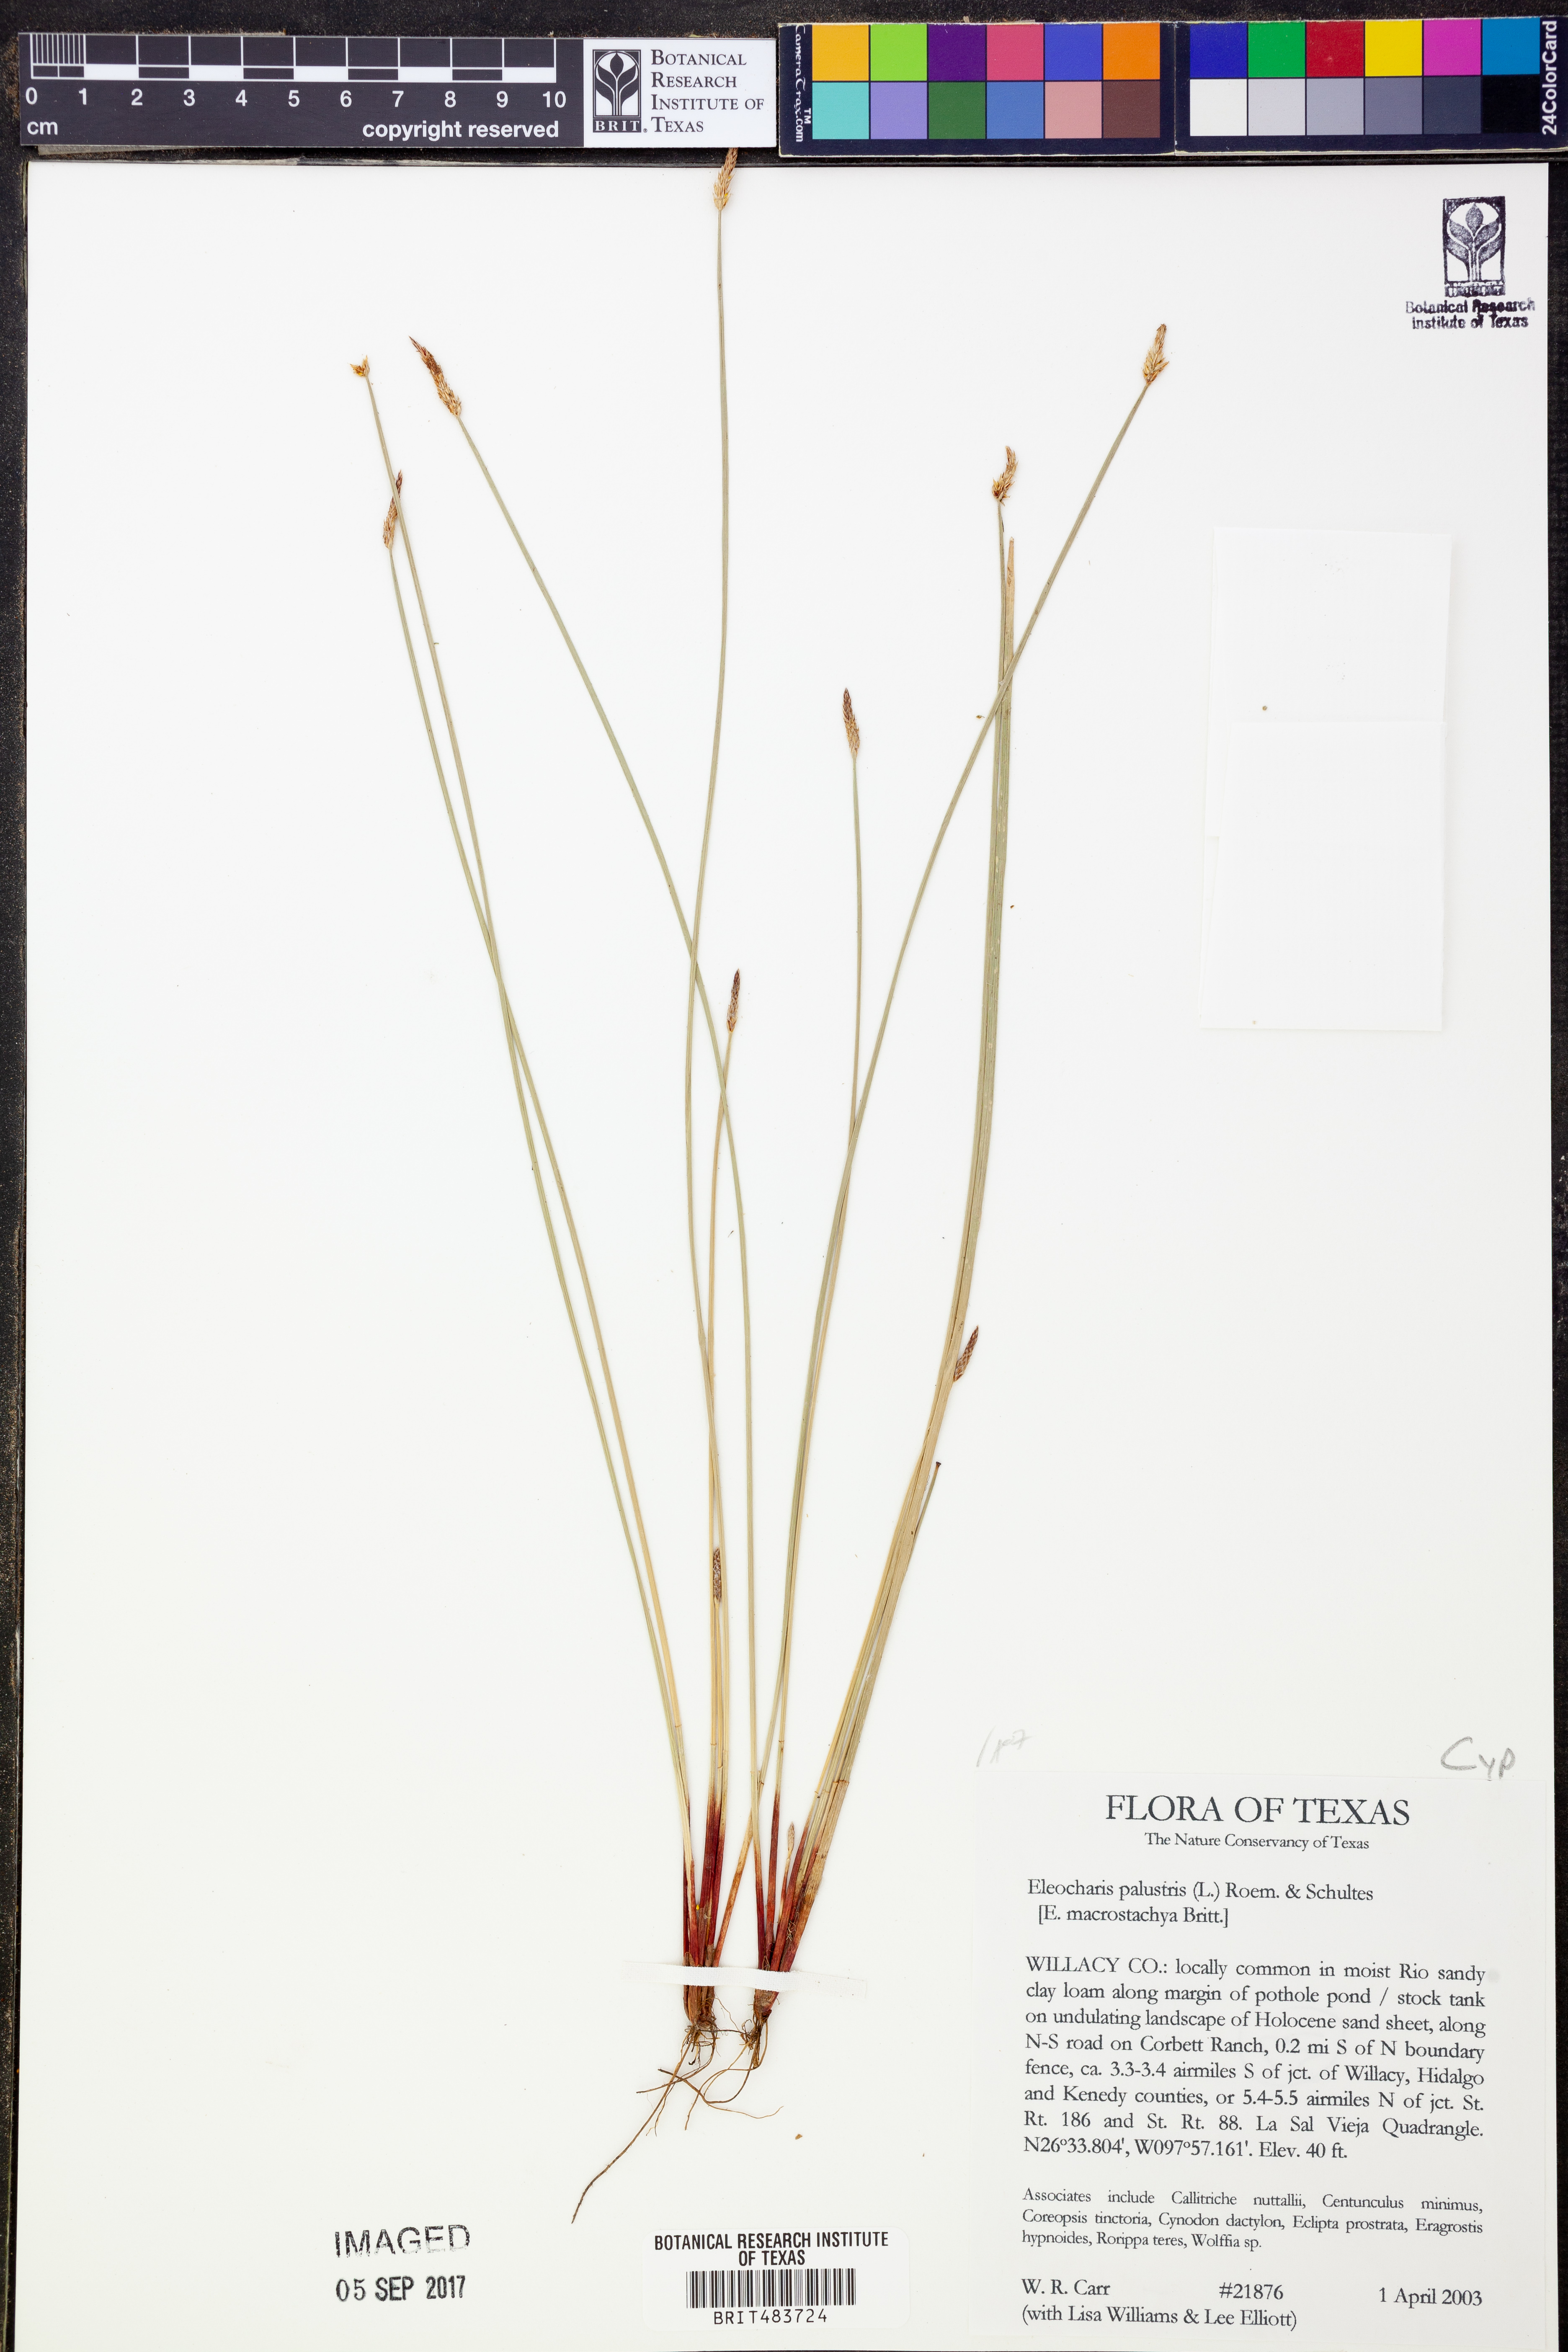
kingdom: Plantae
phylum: Tracheophyta
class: Liliopsida
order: Poales
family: Cyperaceae
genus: Eleocharis
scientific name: Eleocharis palustris
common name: Common spike-rush
